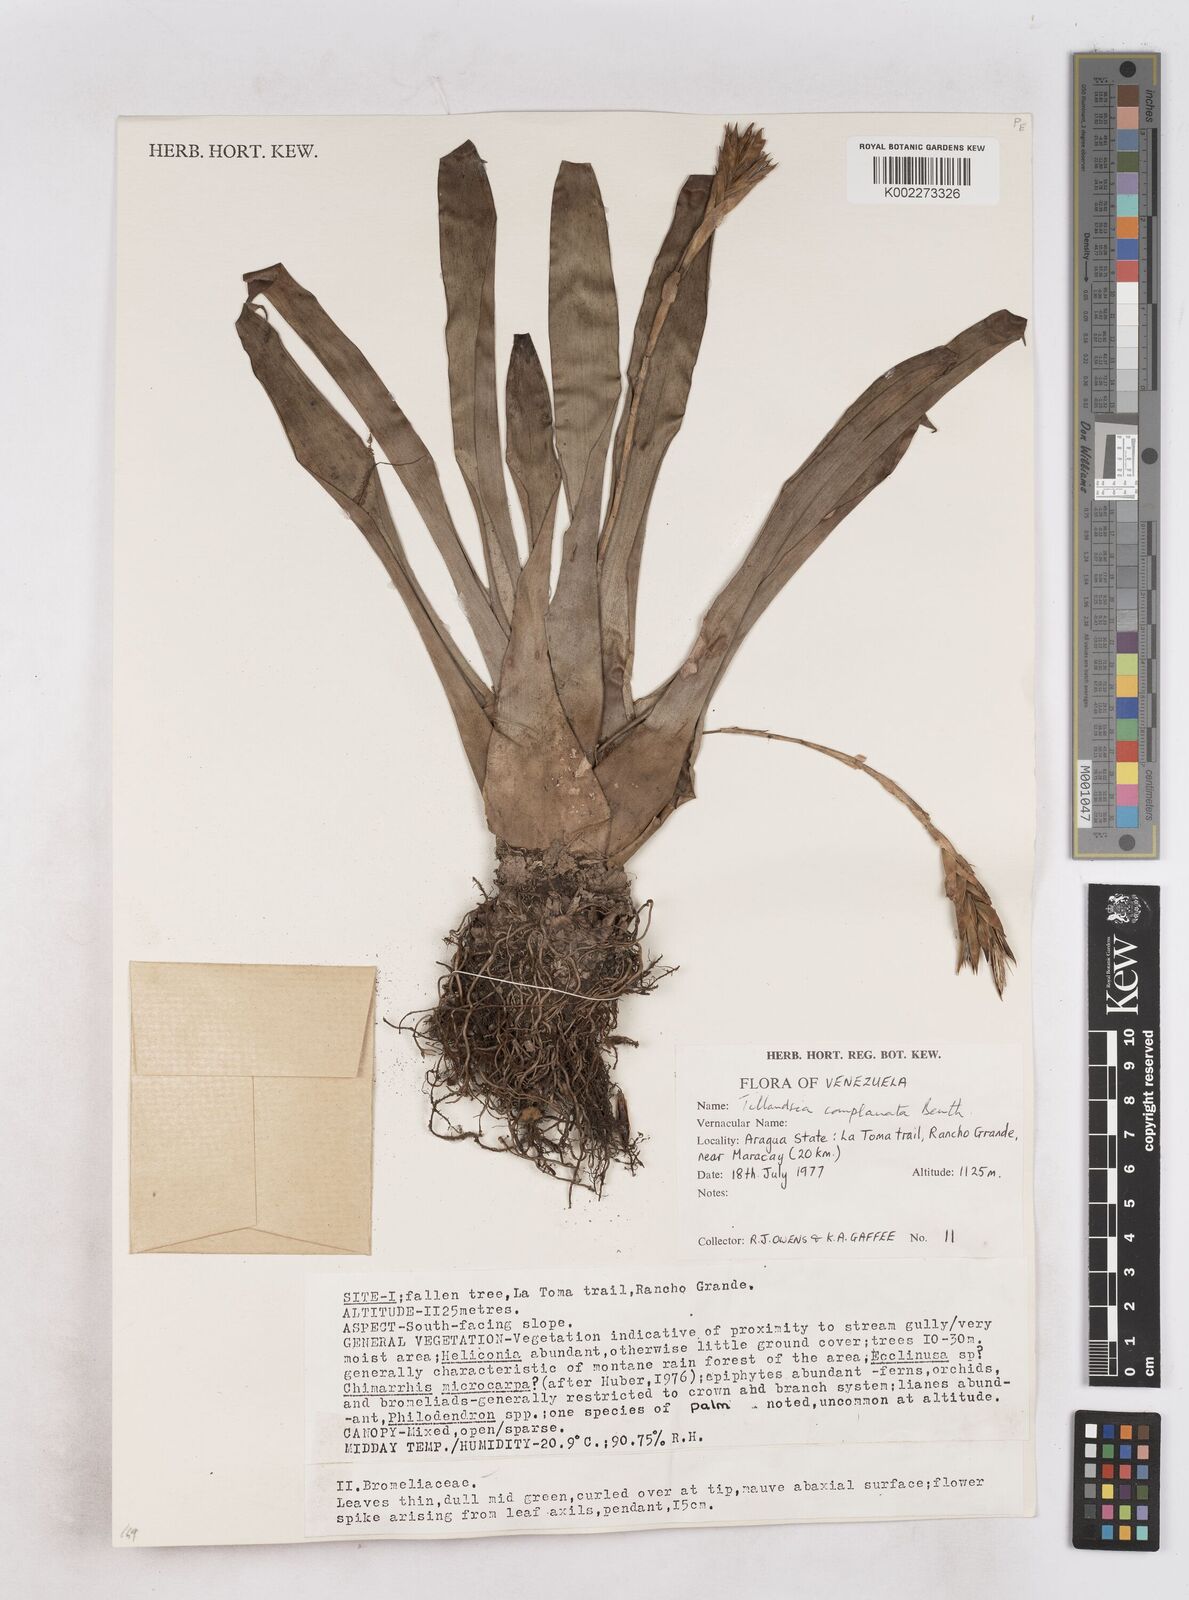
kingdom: Plantae
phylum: Tracheophyta
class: Liliopsida
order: Poales
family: Bromeliaceae
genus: Tillandsia
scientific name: Tillandsia complanata
